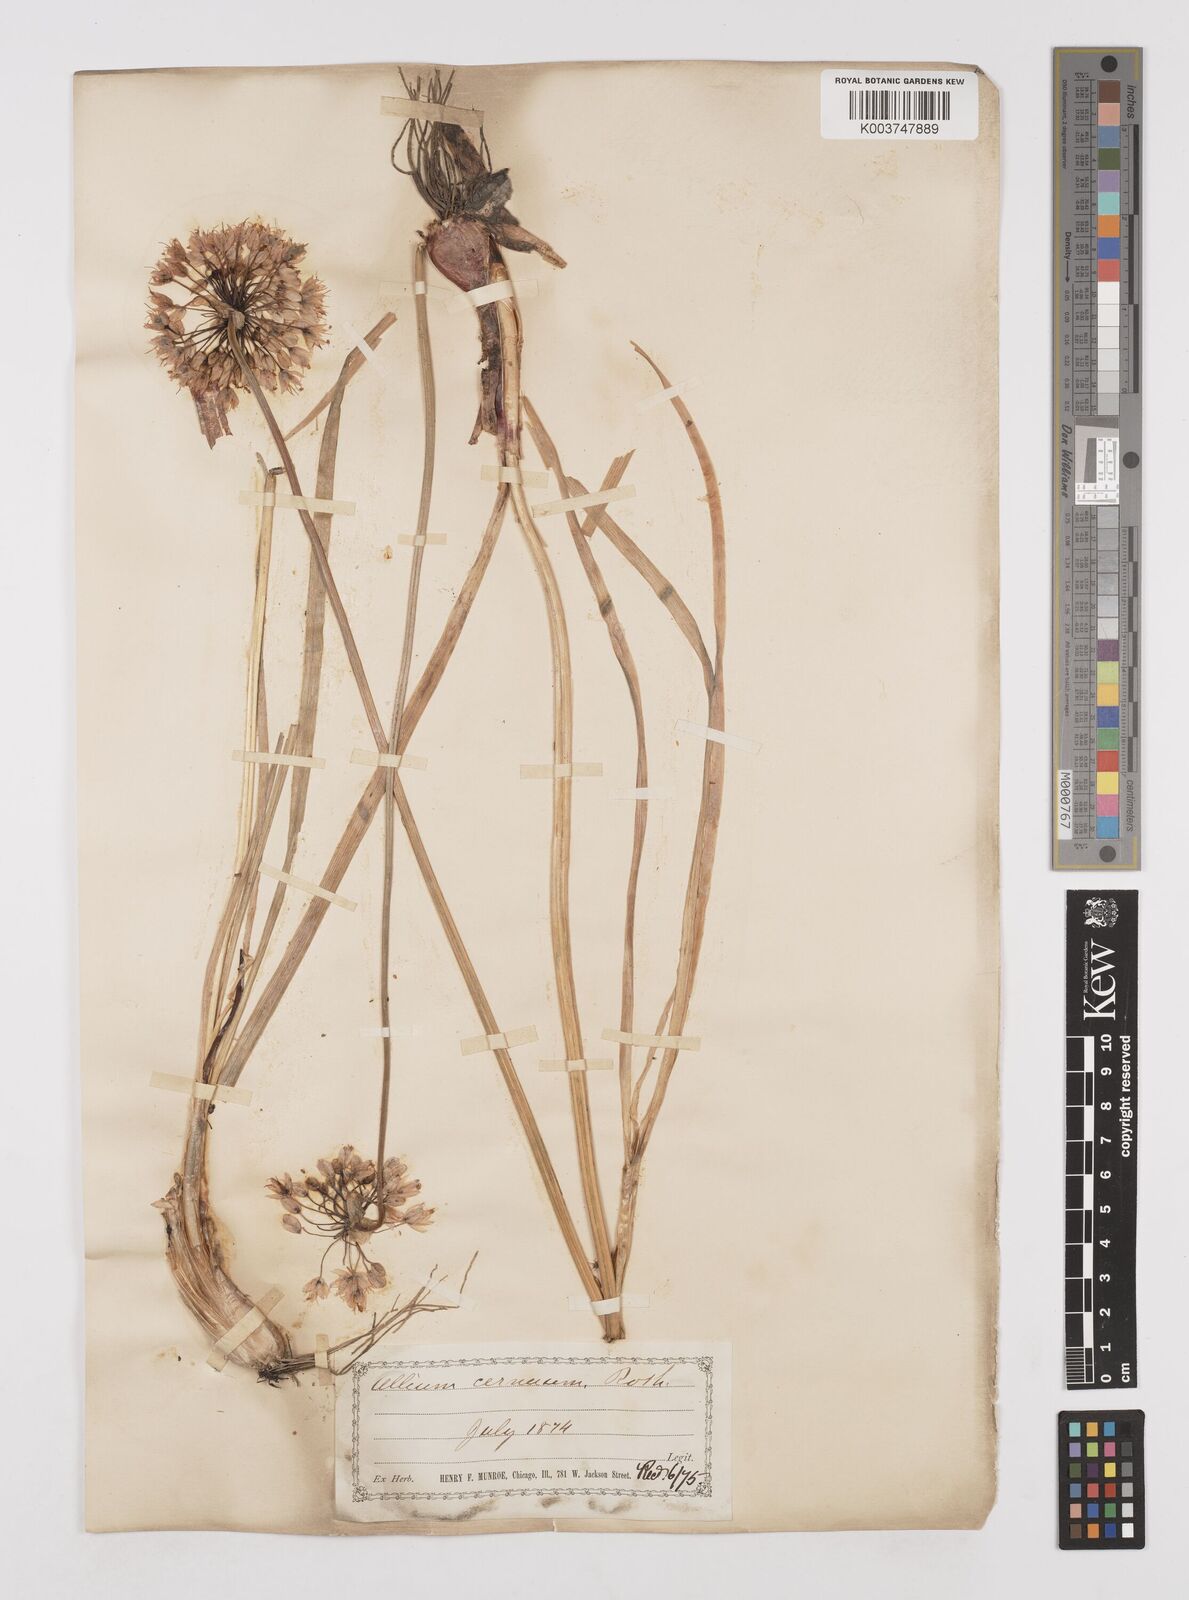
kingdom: Plantae
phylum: Tracheophyta
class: Liliopsida
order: Asparagales
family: Amaryllidaceae
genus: Allium
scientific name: Allium cernuum
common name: Nodding onion
